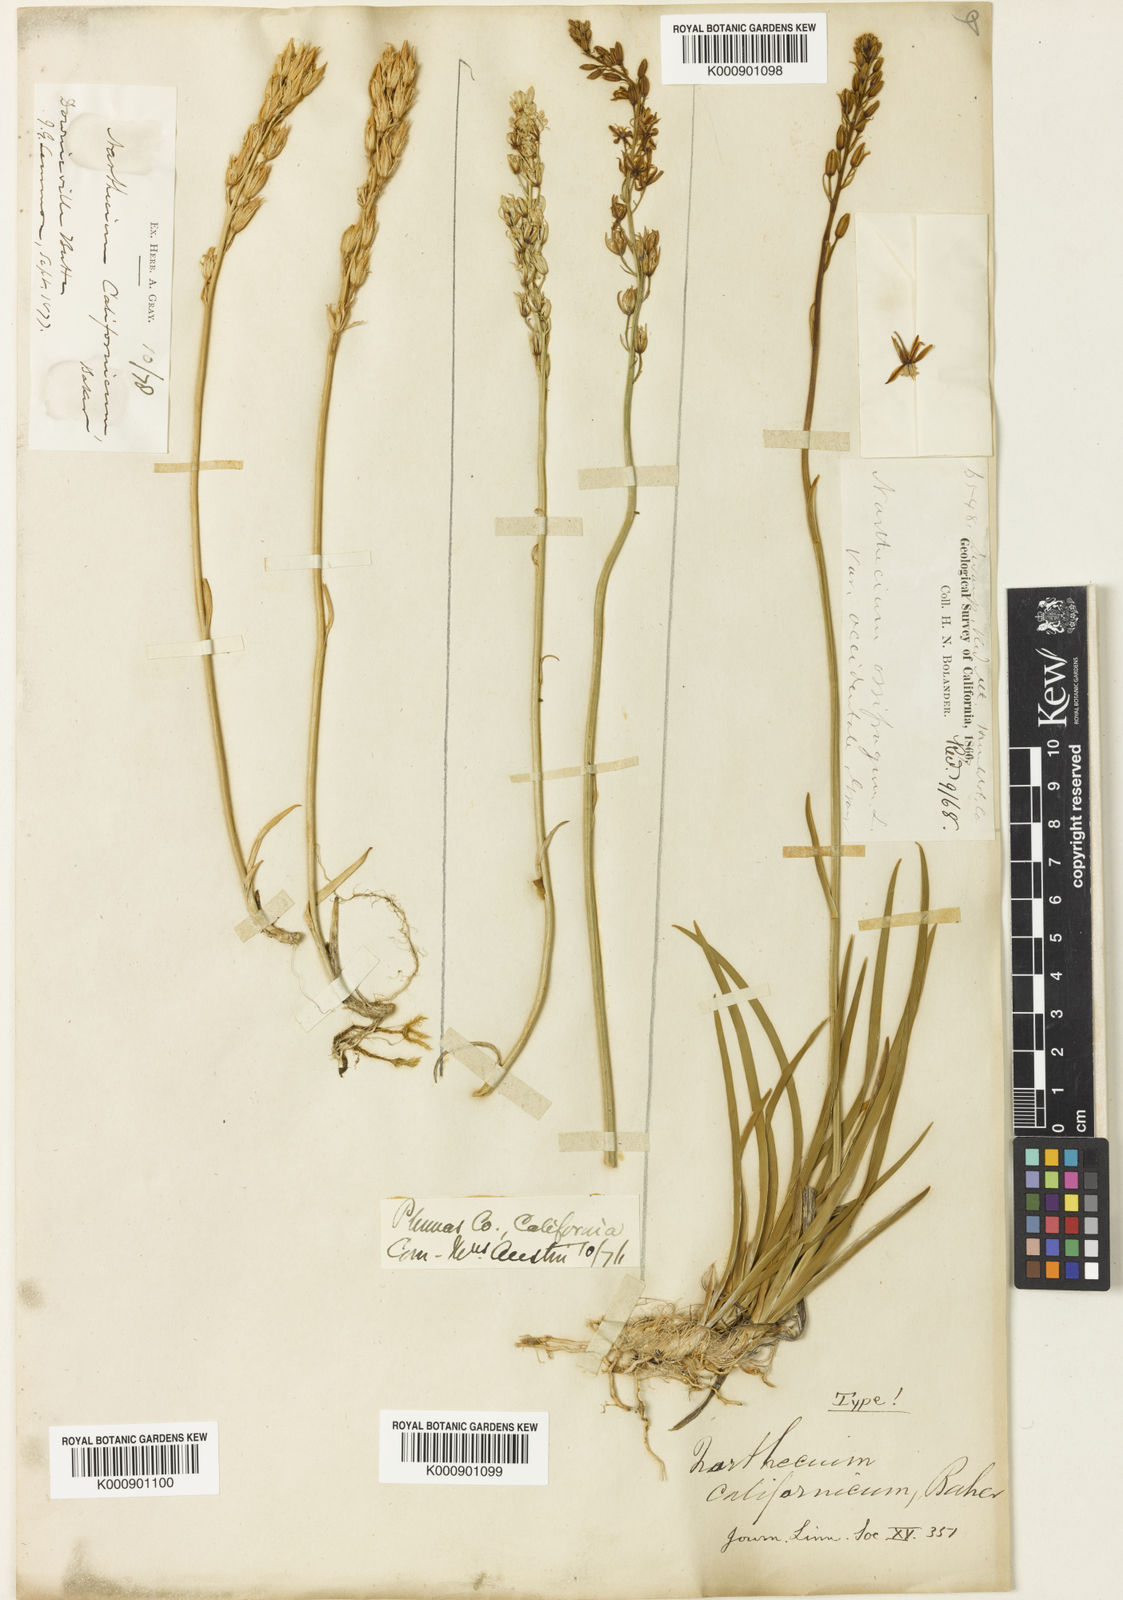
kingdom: Plantae
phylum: Tracheophyta
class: Liliopsida
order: Dioscoreales
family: Nartheciaceae
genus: Narthecium
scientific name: Narthecium californicum
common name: California bog-asphodel
